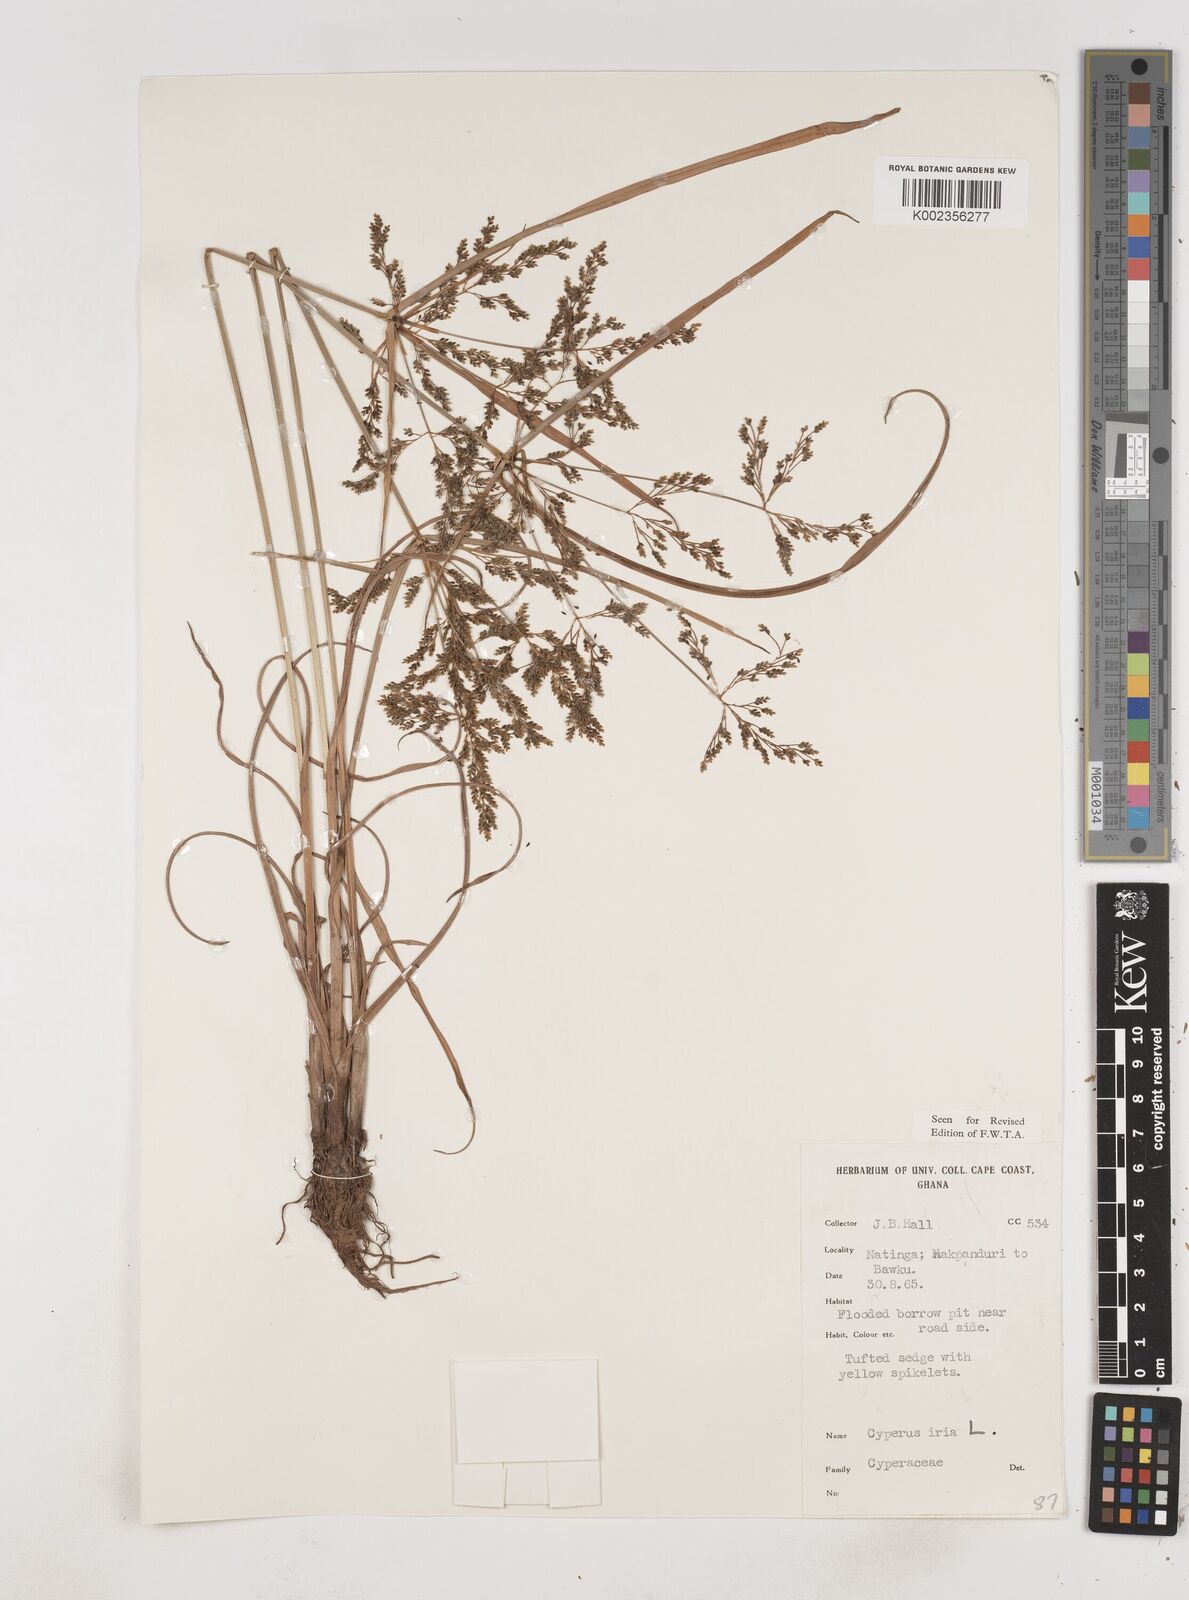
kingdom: Plantae
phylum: Tracheophyta
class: Liliopsida
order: Poales
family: Cyperaceae
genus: Cyperus
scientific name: Cyperus iria
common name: Ricefield flatsedge
